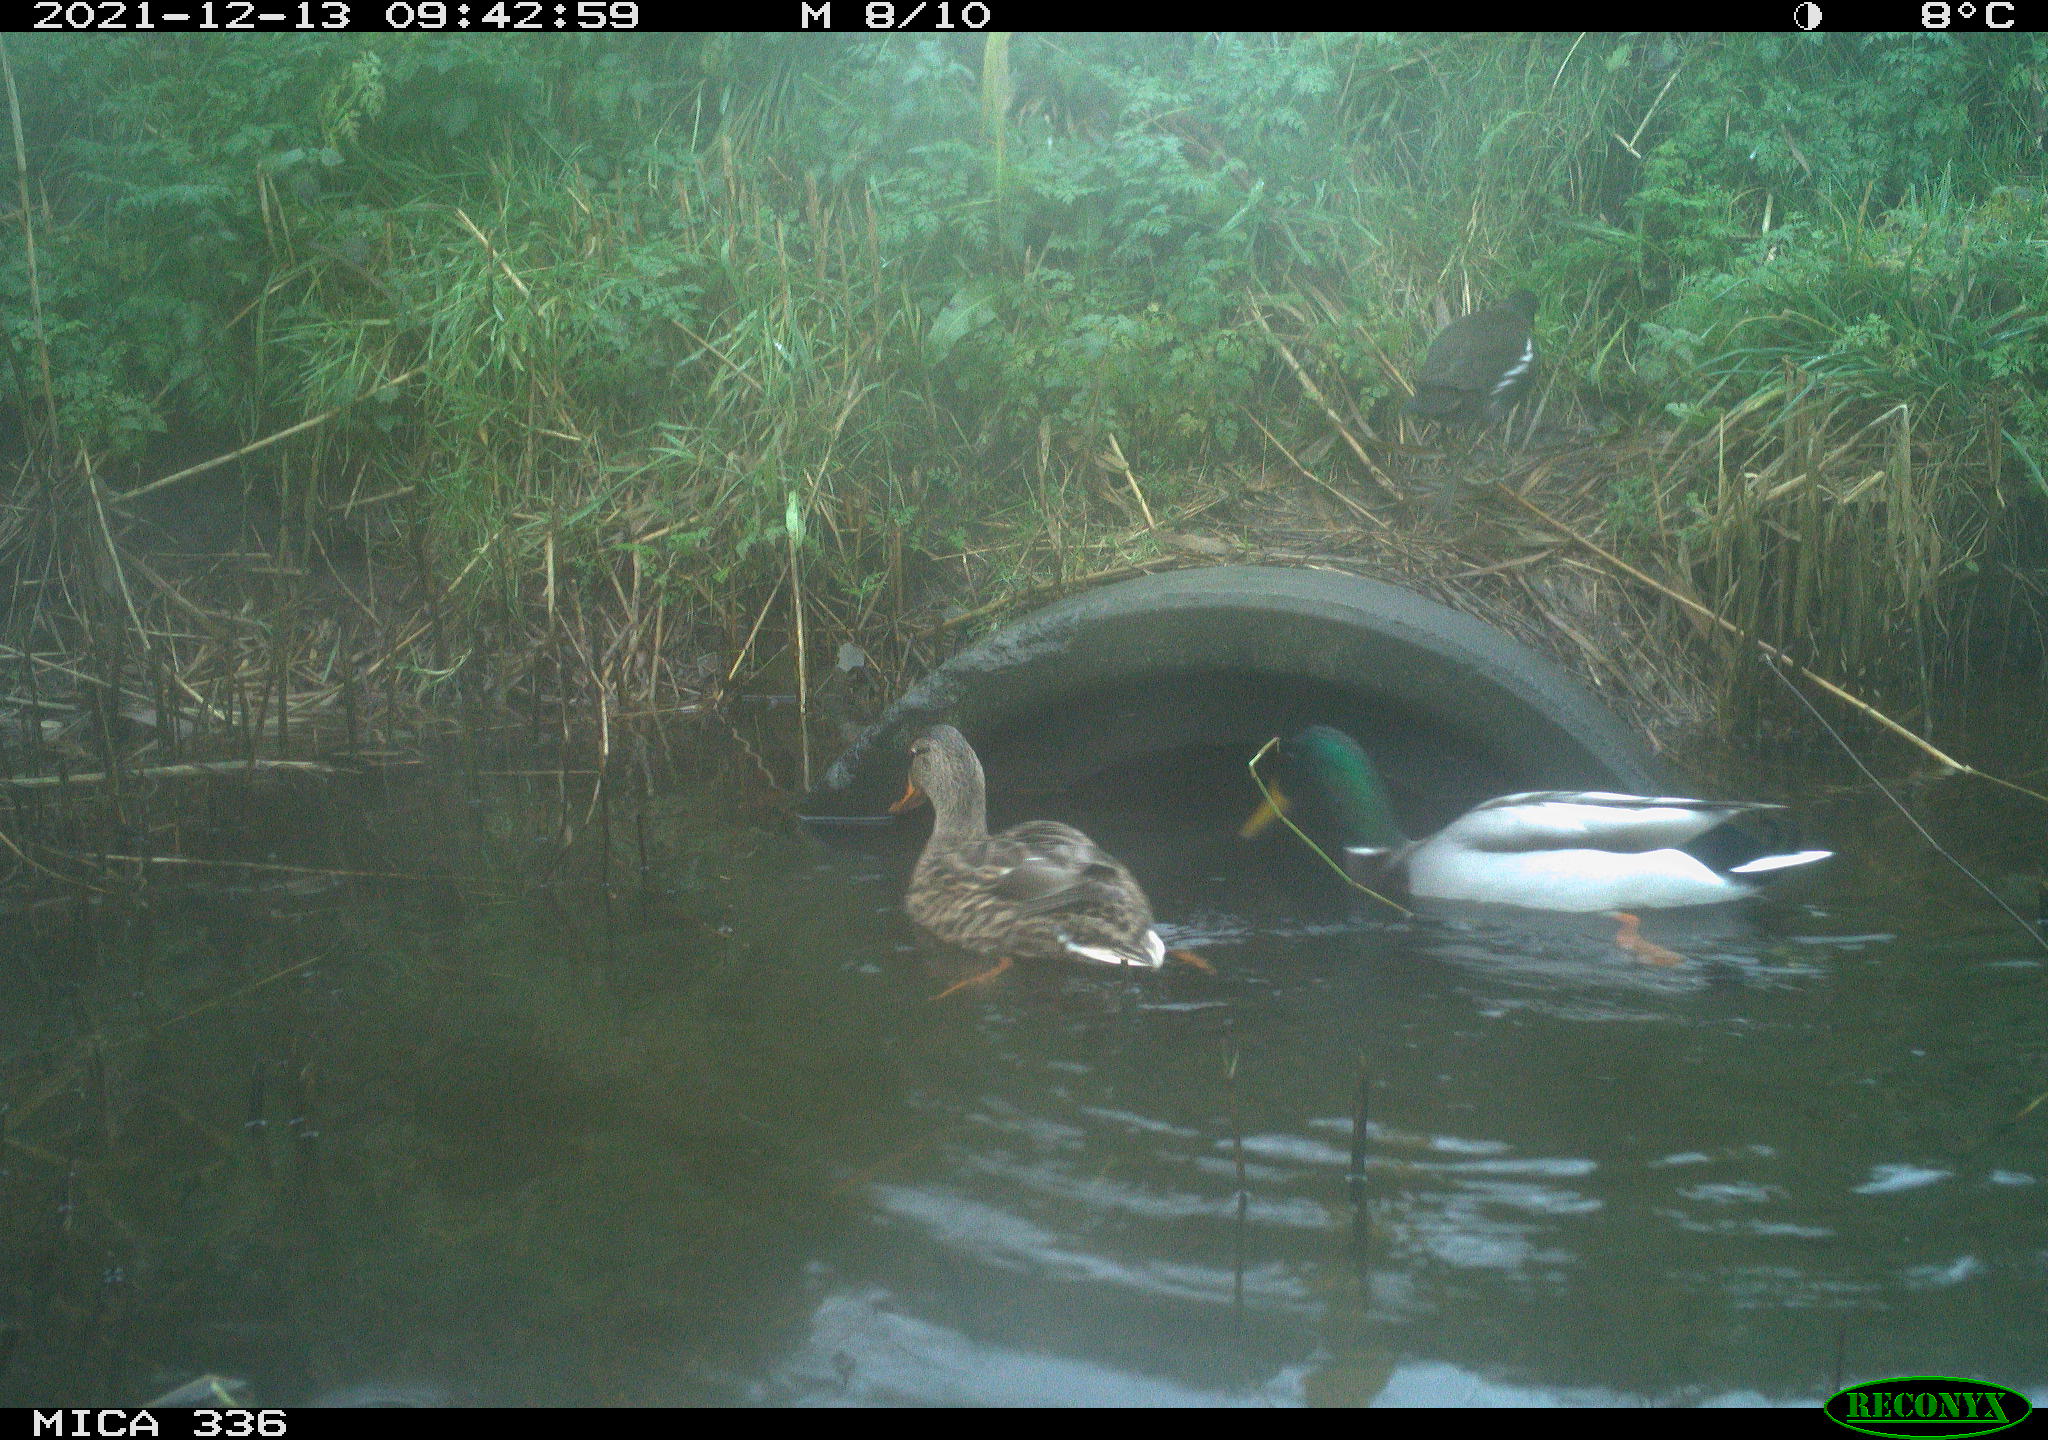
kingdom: Animalia
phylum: Chordata
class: Aves
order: Anseriformes
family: Anatidae
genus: Anas
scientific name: Anas platyrhynchos
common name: Mallard
